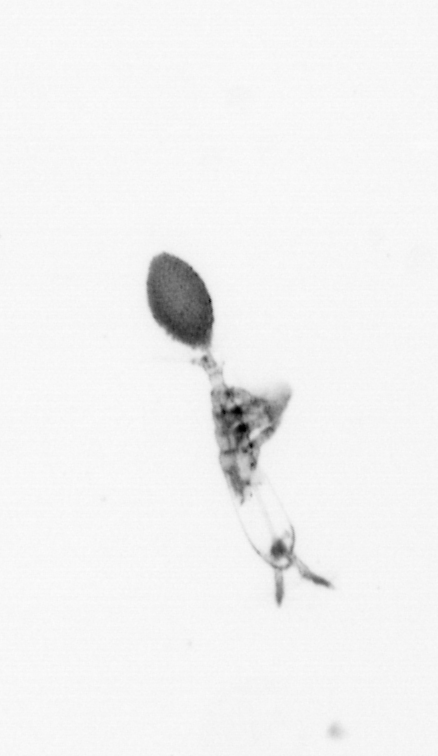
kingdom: Animalia
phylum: Arthropoda
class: Copepoda
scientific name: Copepoda
